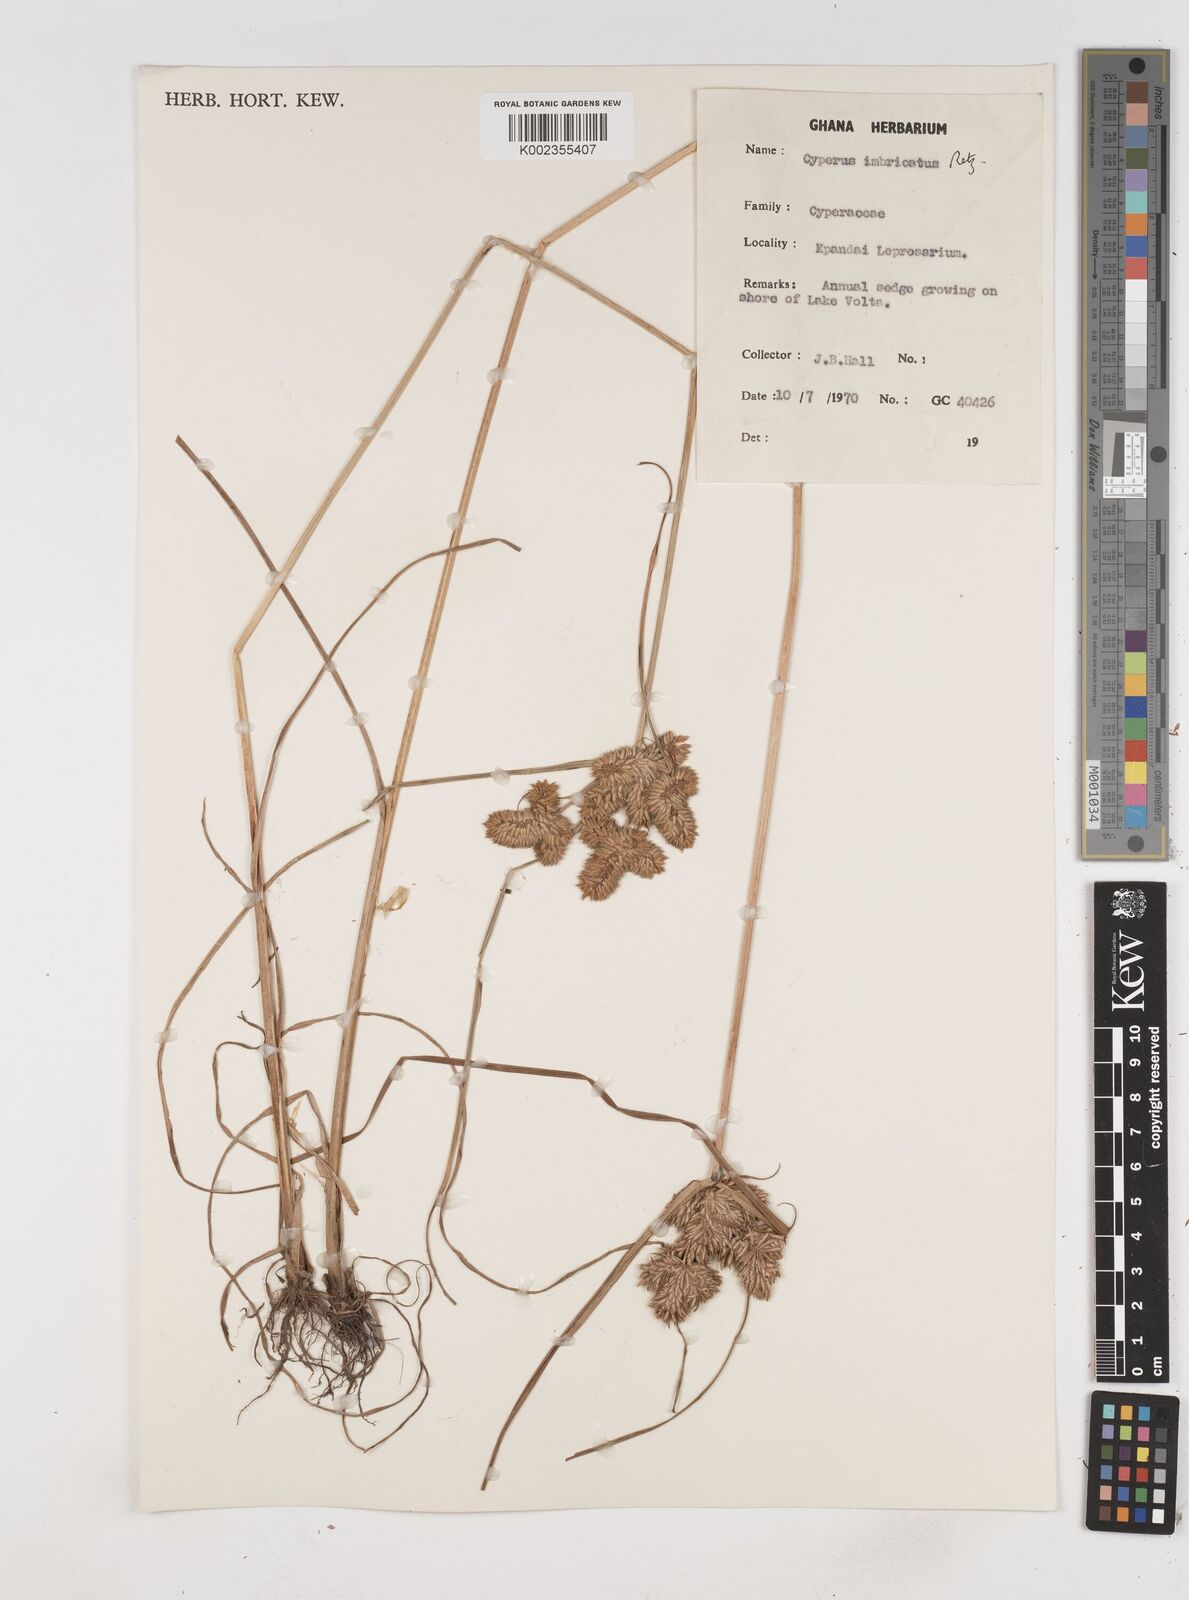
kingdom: Plantae
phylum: Tracheophyta
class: Liliopsida
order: Poales
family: Cyperaceae
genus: Cyperus
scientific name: Cyperus imbricatus
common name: Shingle flatsedge
